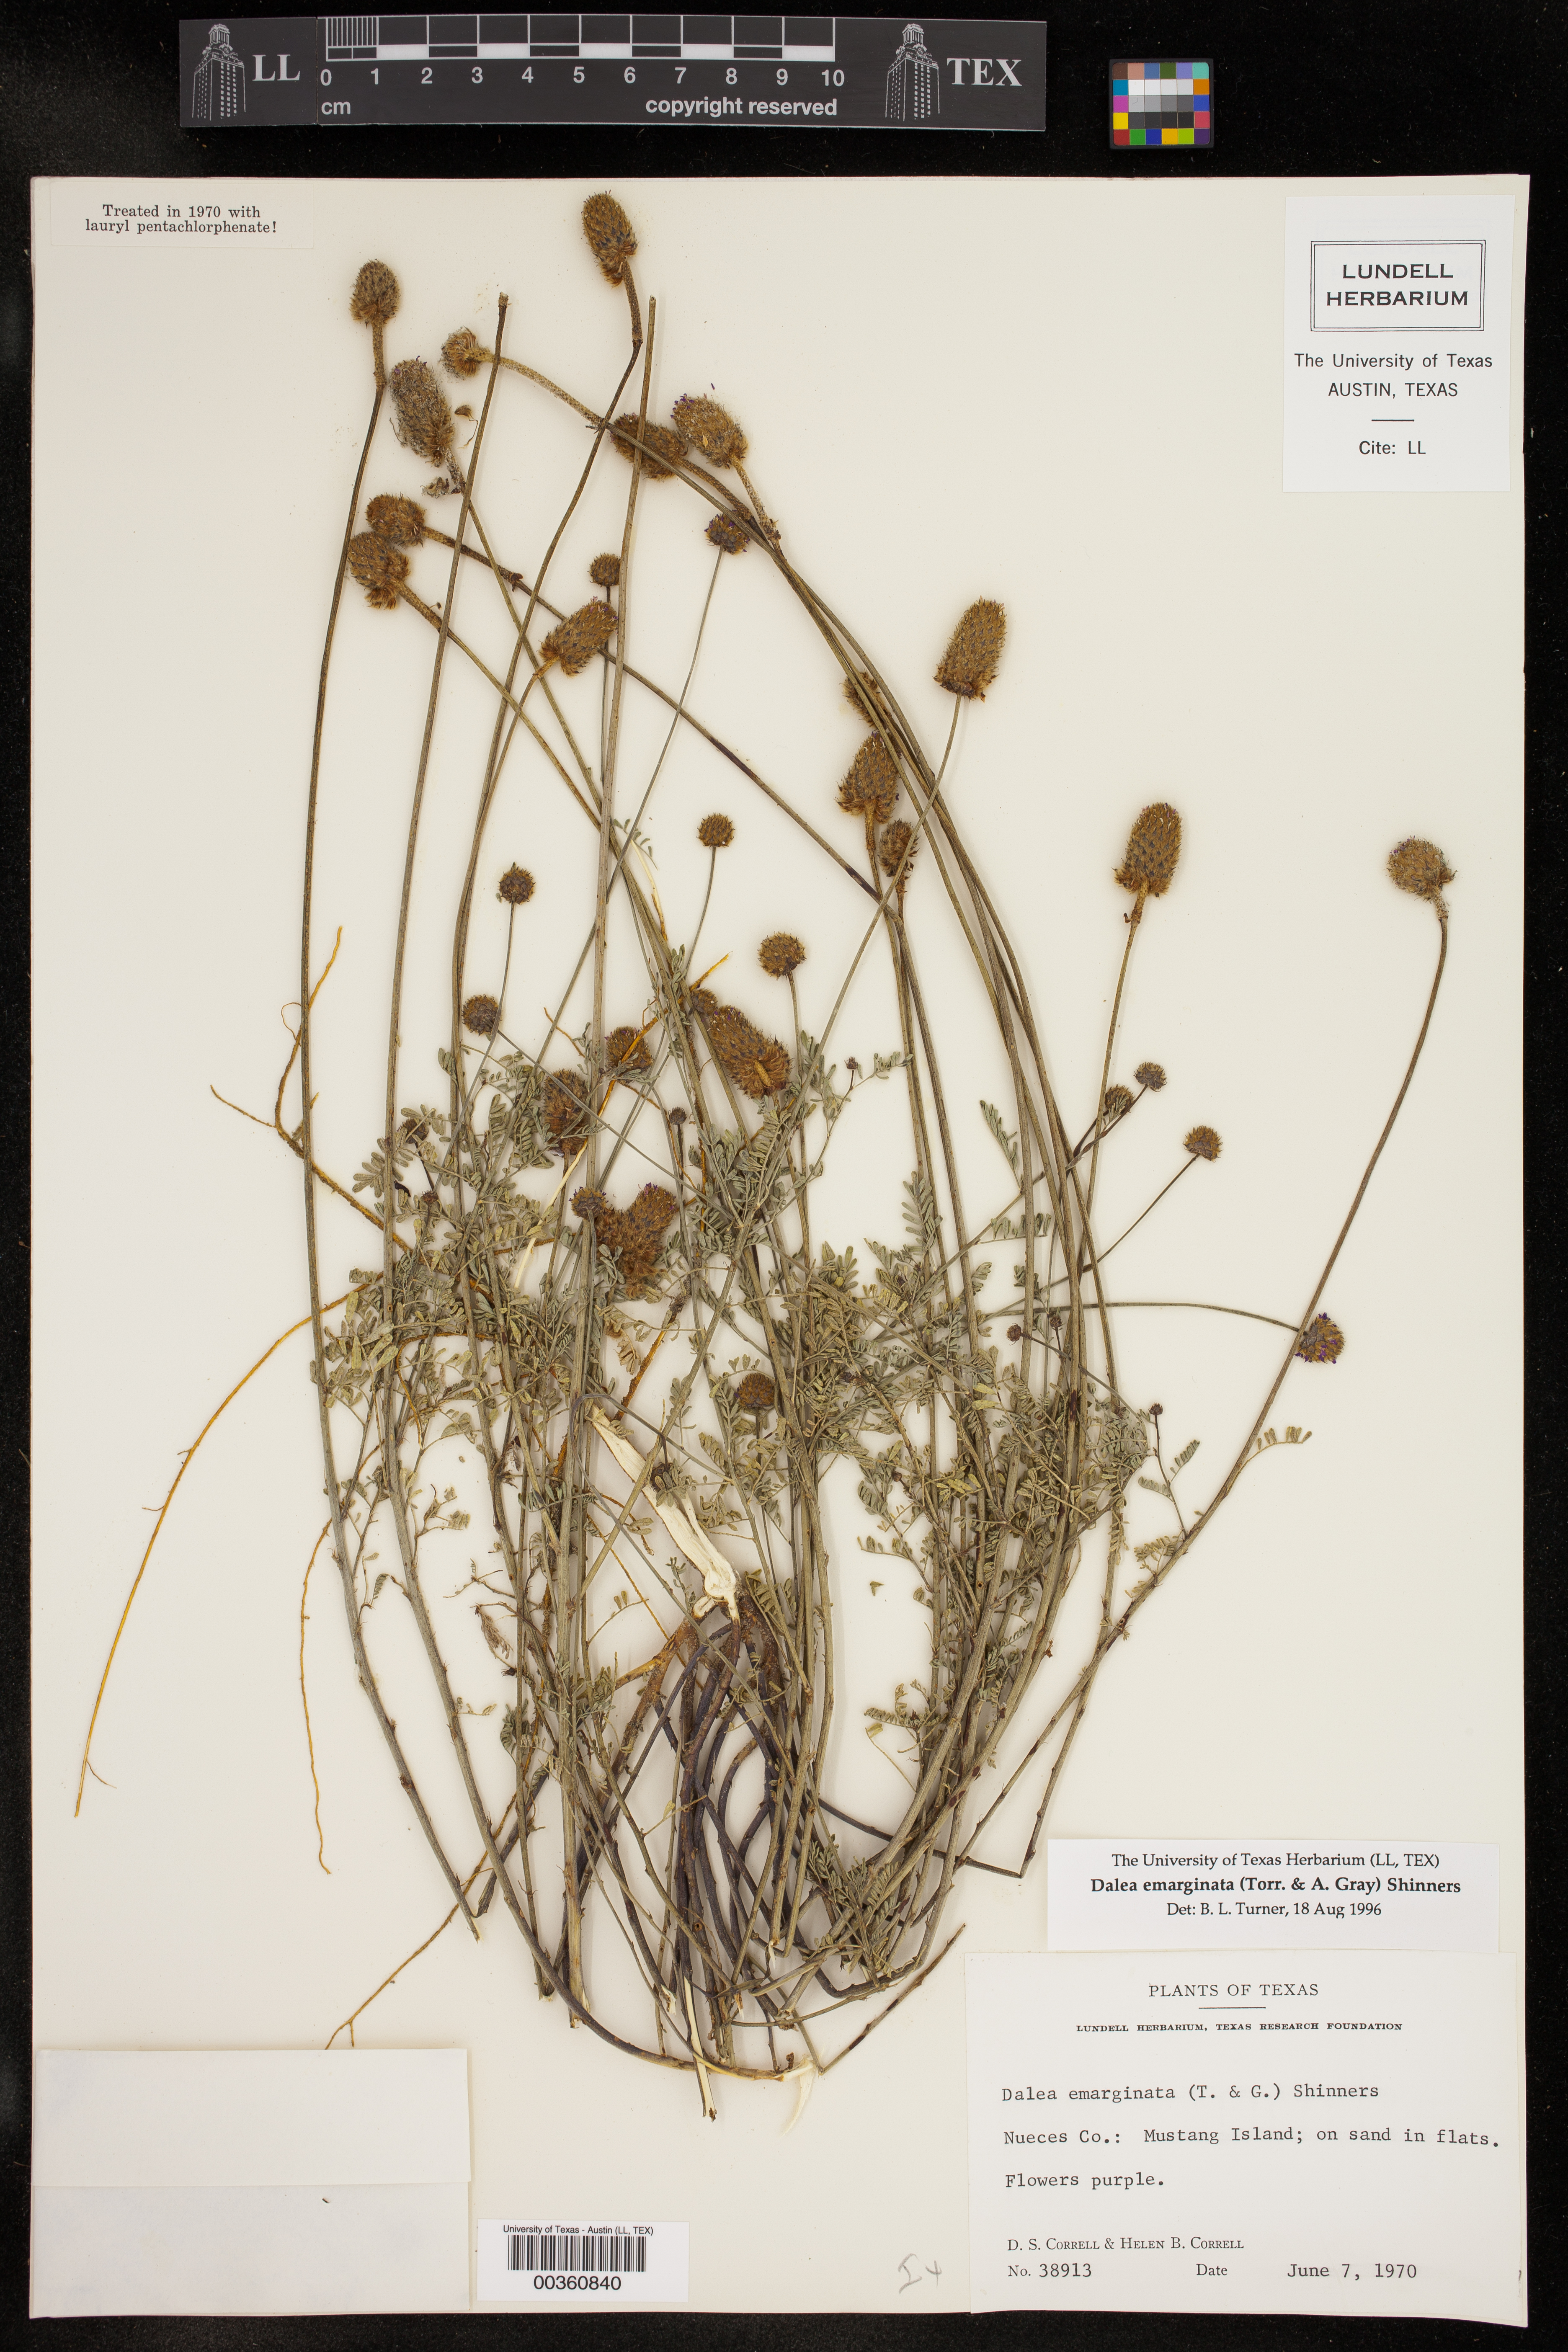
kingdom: Plantae
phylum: Tracheophyta
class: Magnoliopsida
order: Fabales
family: Fabaceae
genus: Dalea
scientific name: Dalea emarginata
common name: Wedgeleaf prairie clover
